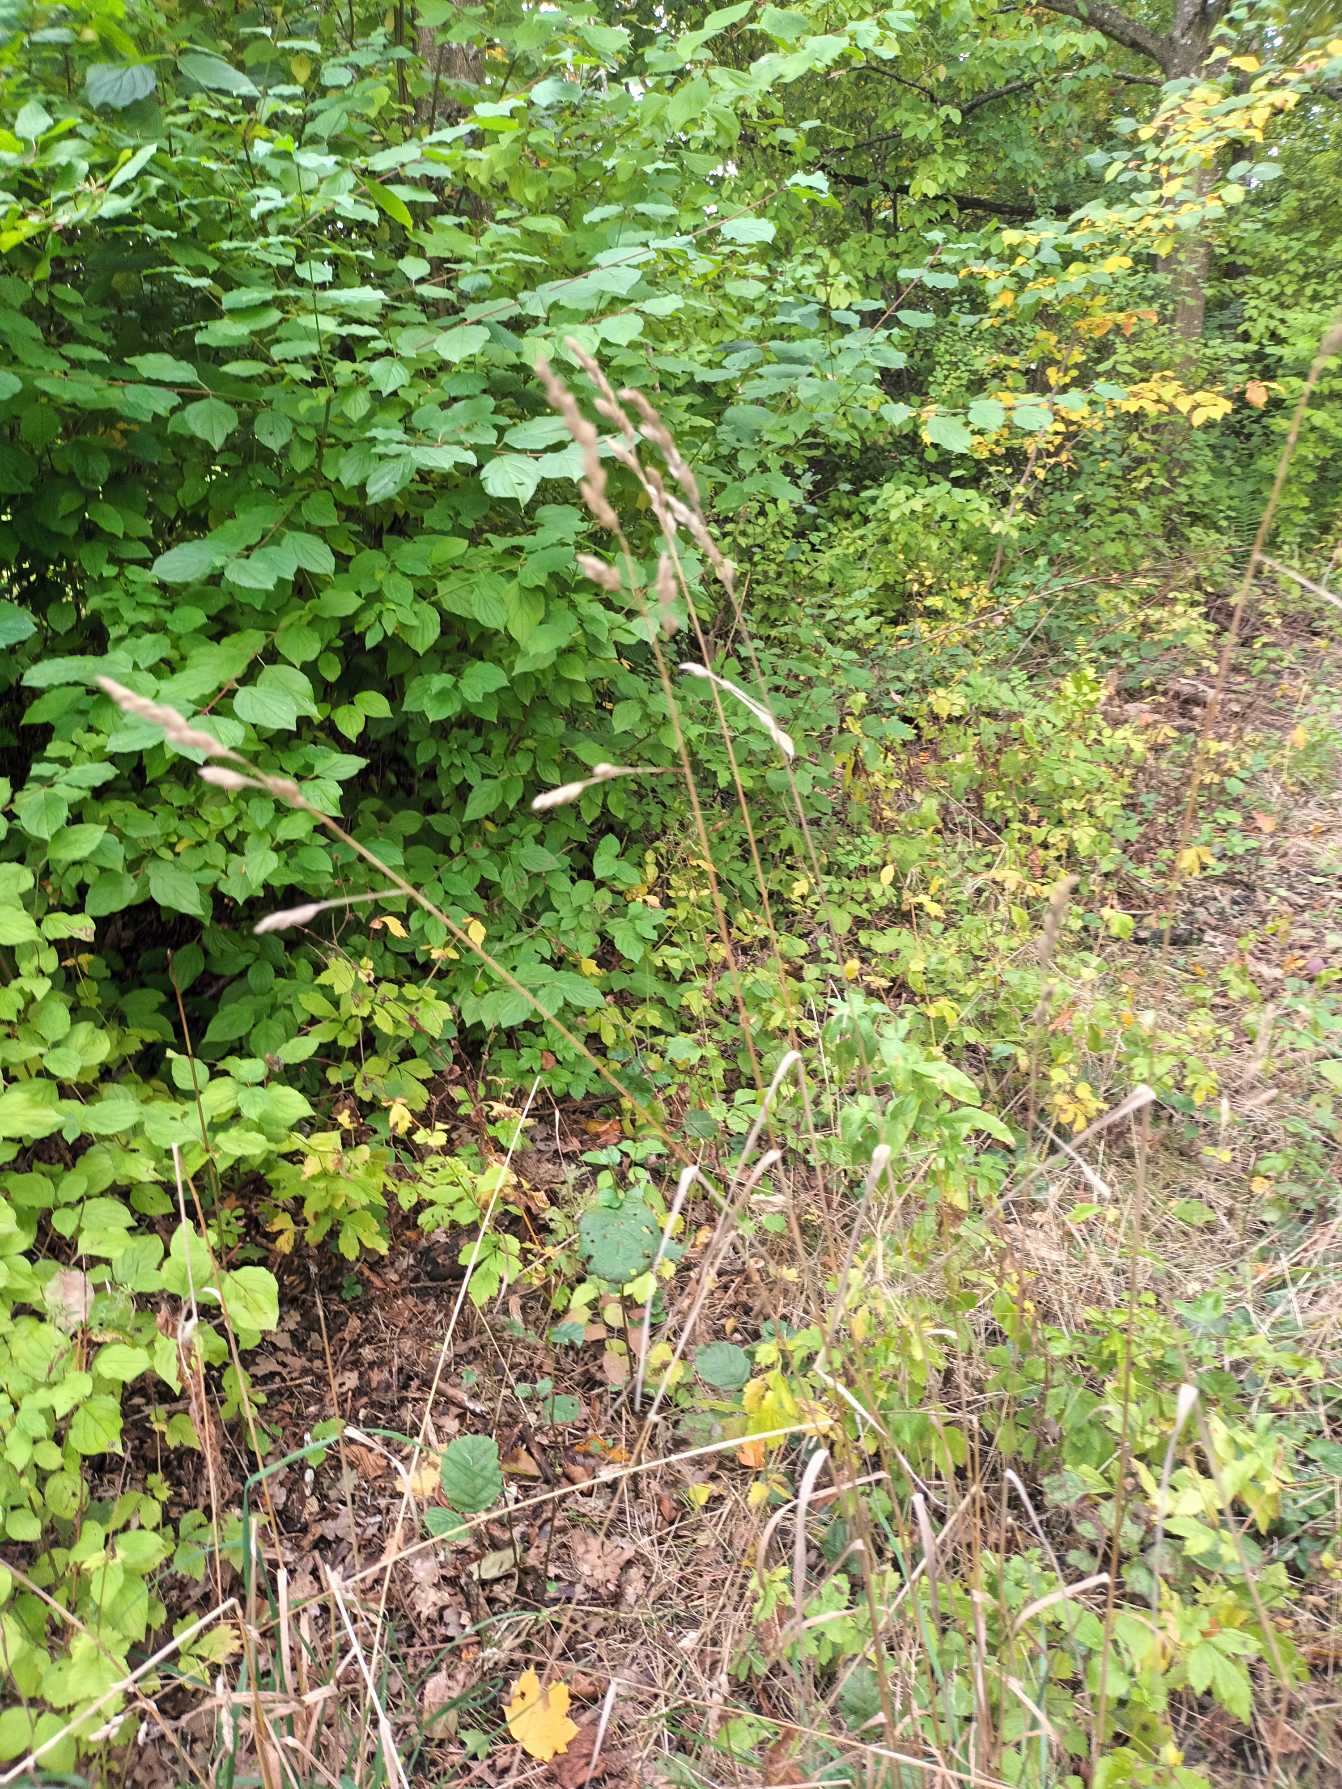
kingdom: Plantae
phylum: Tracheophyta
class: Liliopsida
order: Poales
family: Poaceae
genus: Dactylis
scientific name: Dactylis glomerata
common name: Almindelig hundegræs
